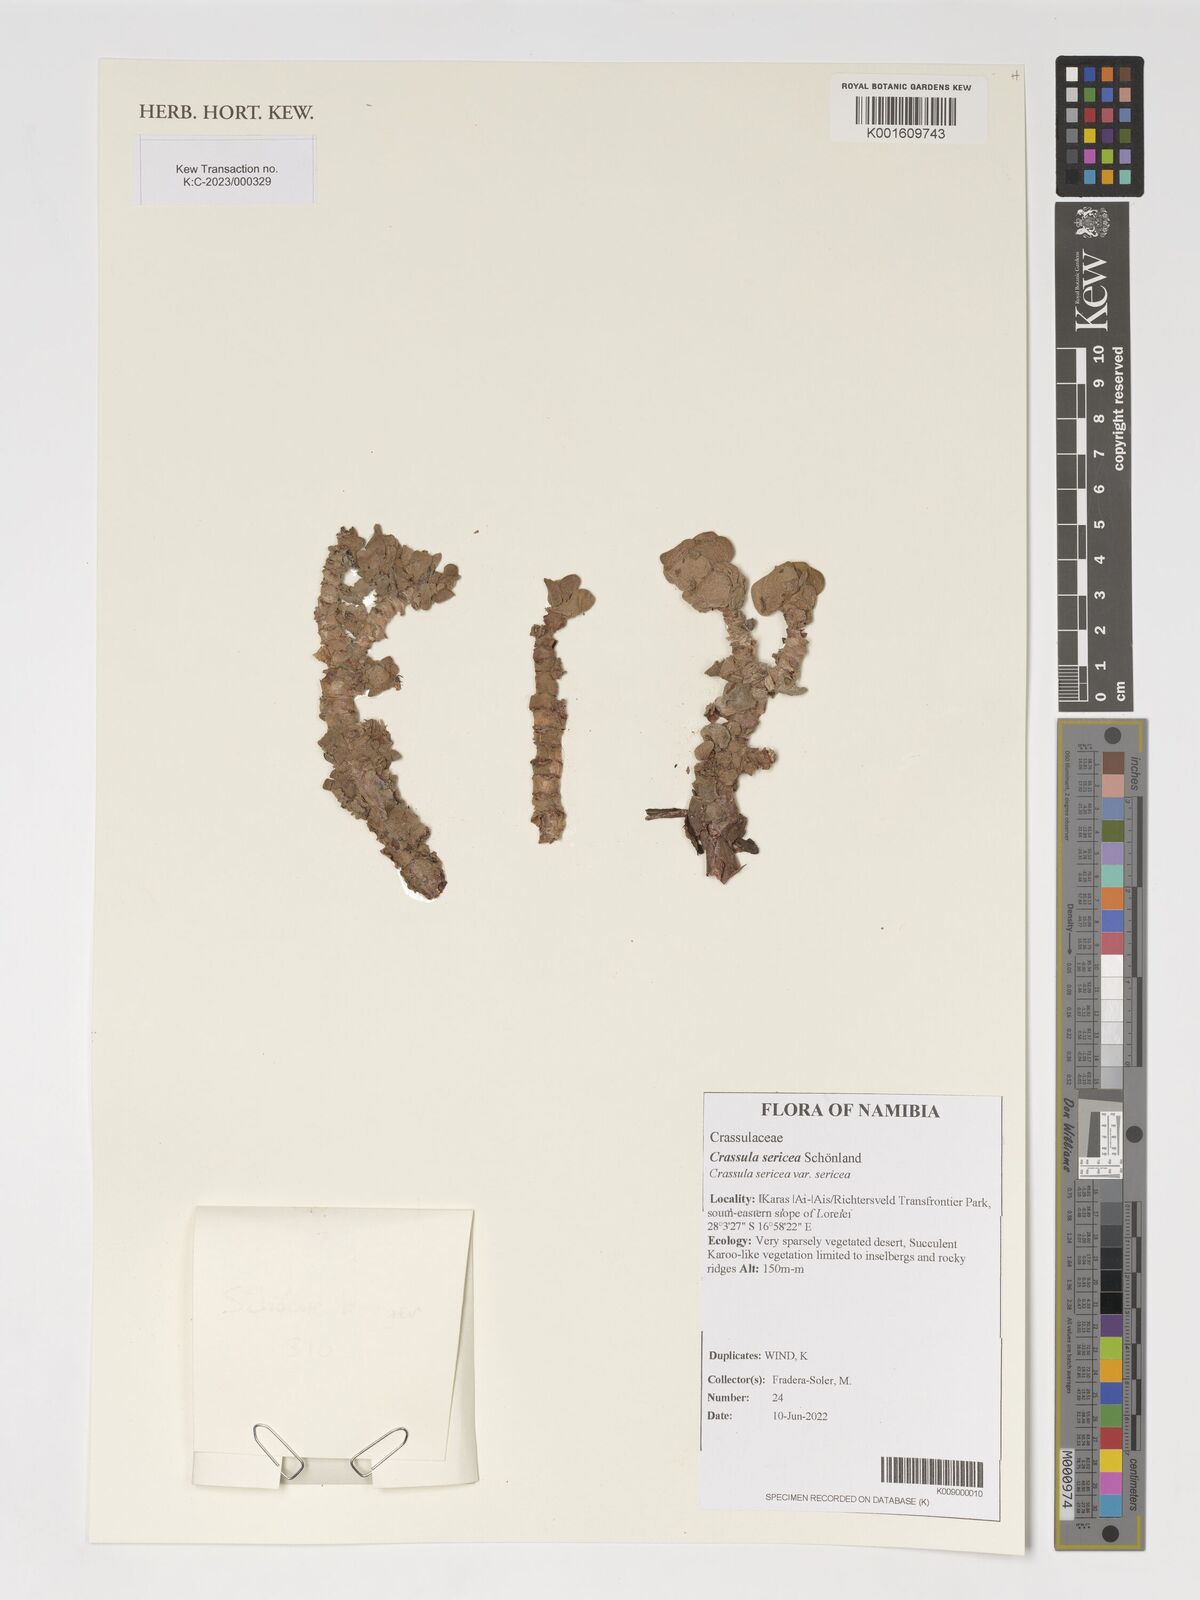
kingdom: Plantae
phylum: Tracheophyta
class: Magnoliopsida
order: Saxifragales
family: Crassulaceae
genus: Crassula
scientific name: Crassula sericea
